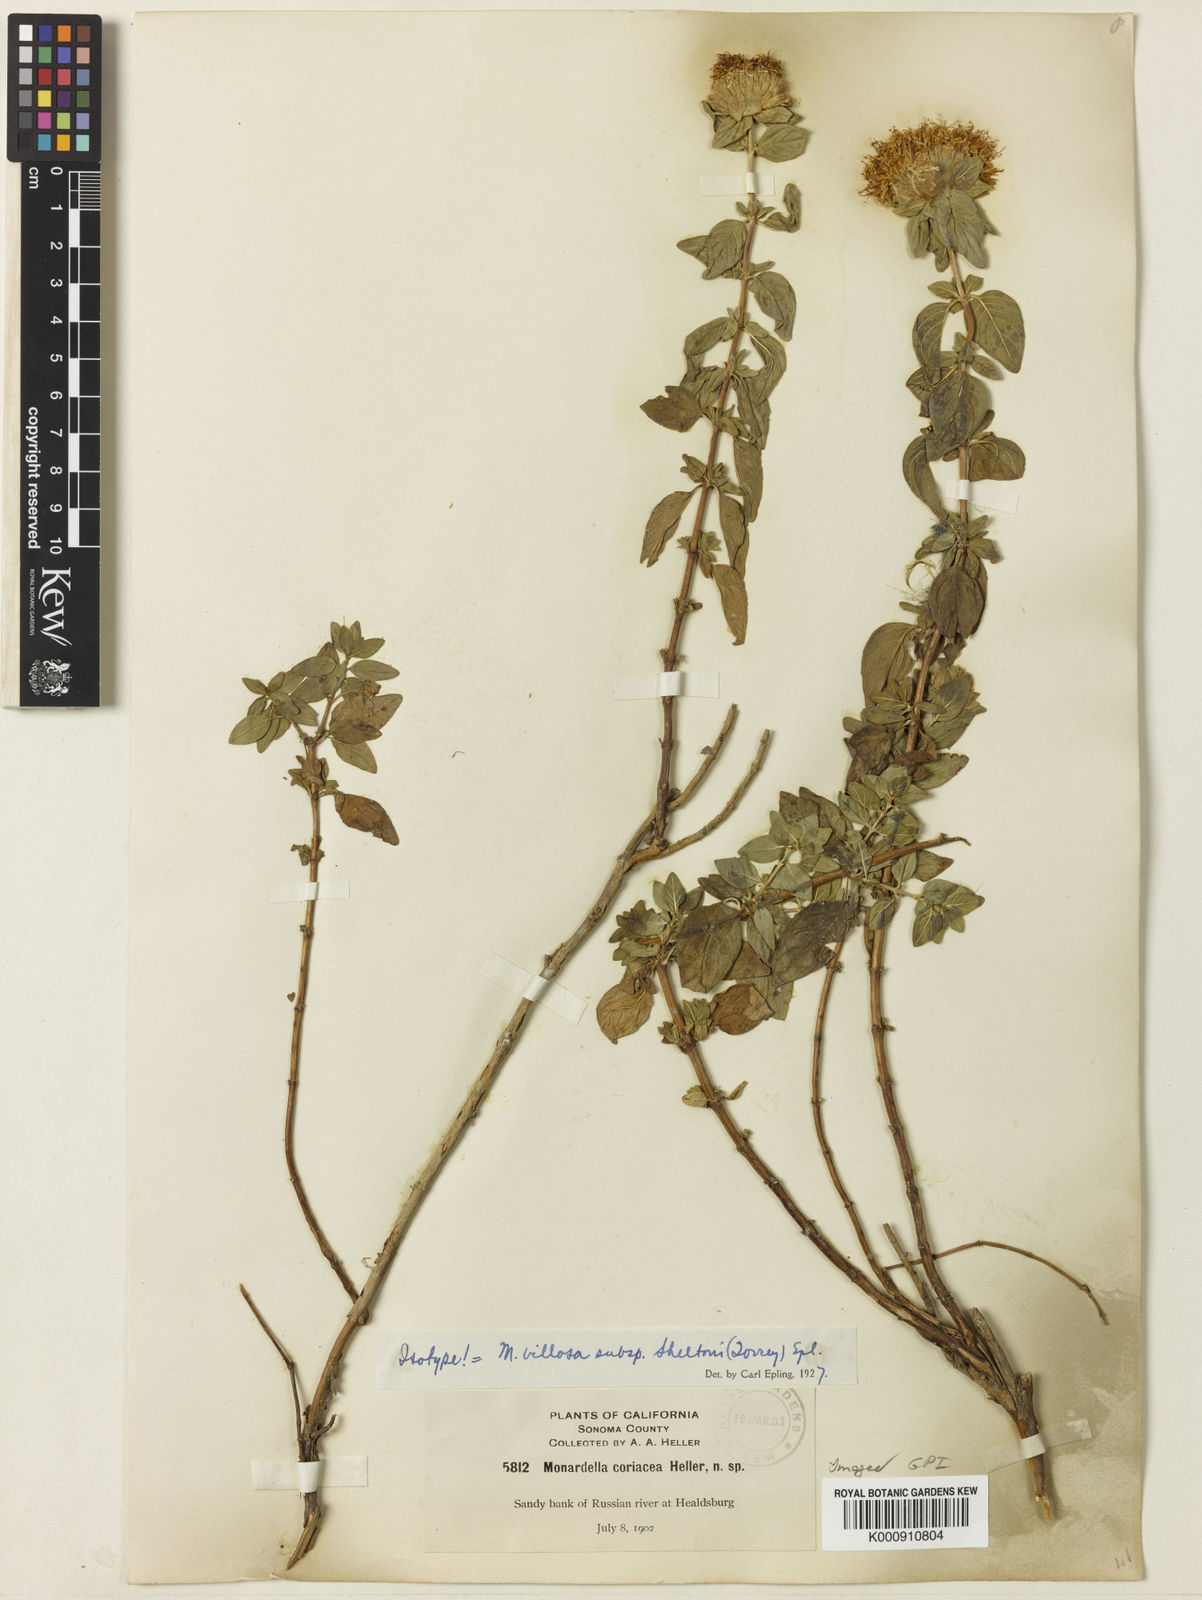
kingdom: Plantae
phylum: Tracheophyta
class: Magnoliopsida
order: Lamiales
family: Lamiaceae
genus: Monardella
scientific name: Monardella odoratissima
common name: Pacific monardella
